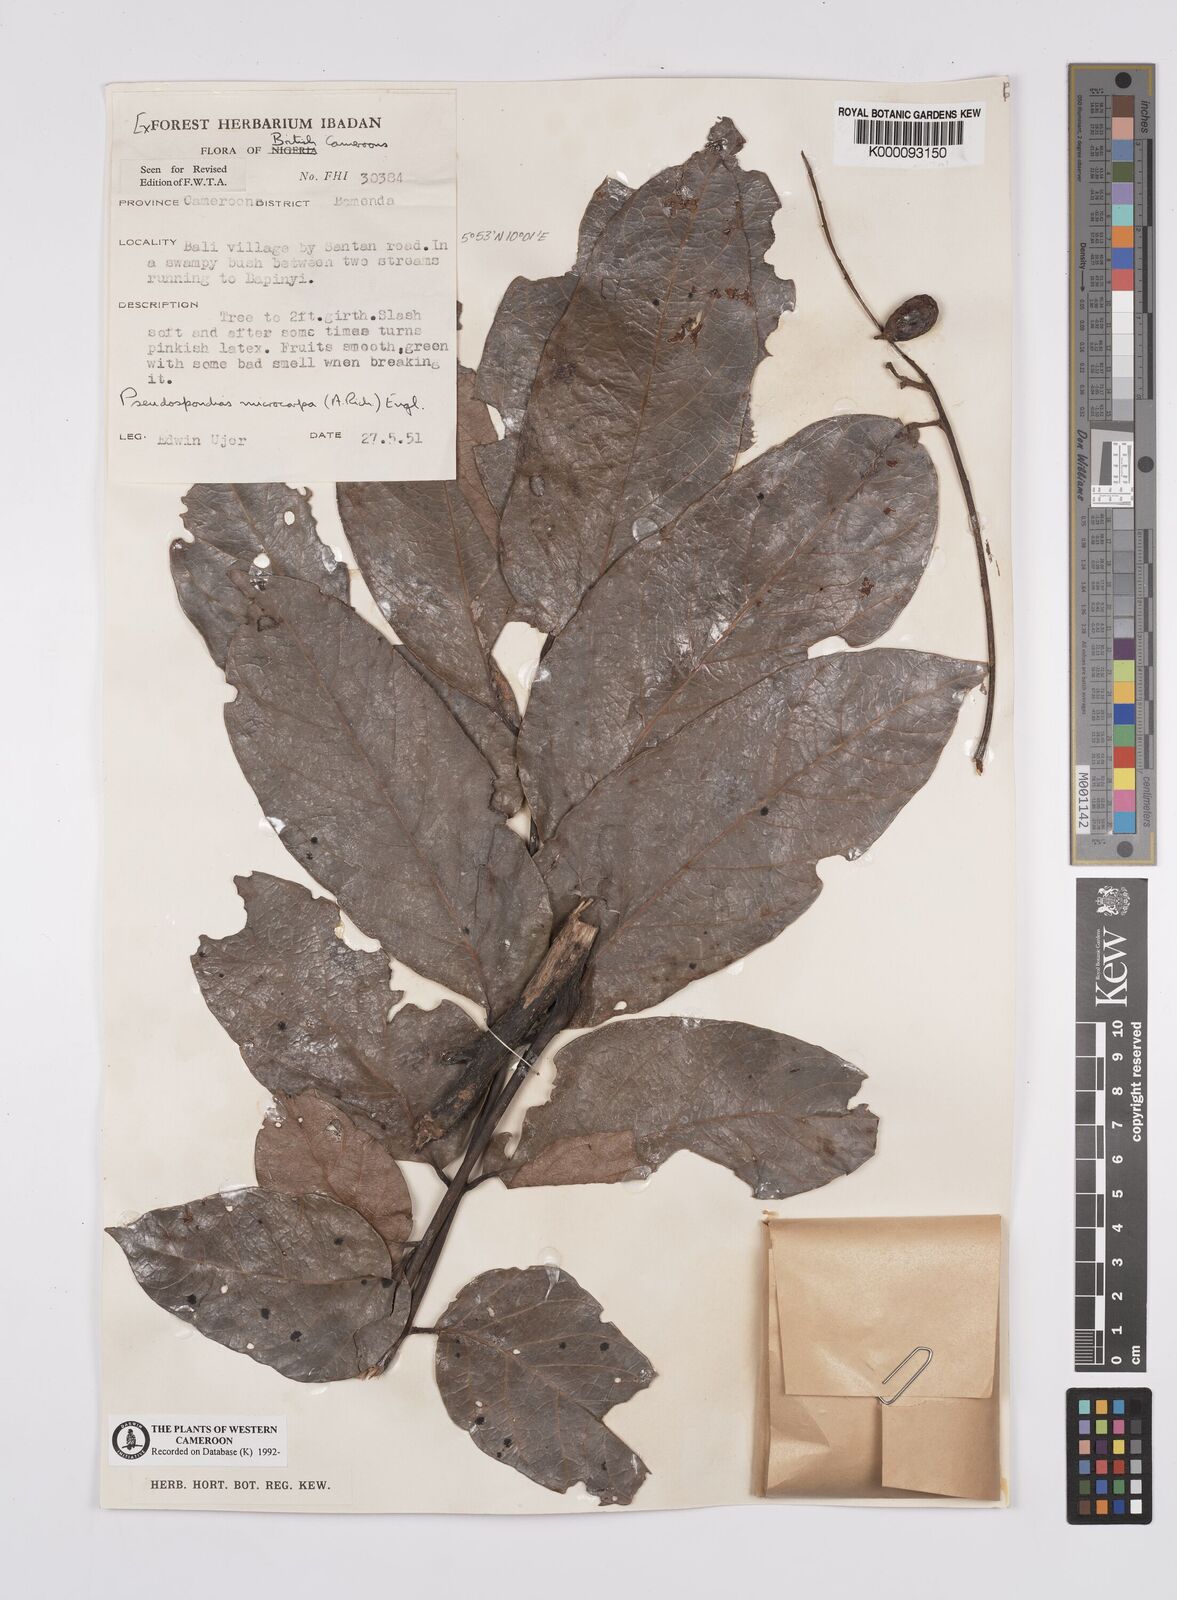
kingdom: Plantae
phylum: Tracheophyta
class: Magnoliopsida
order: Sapindales
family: Anacardiaceae
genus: Pseudospondias
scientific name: Pseudospondias microcarpa
